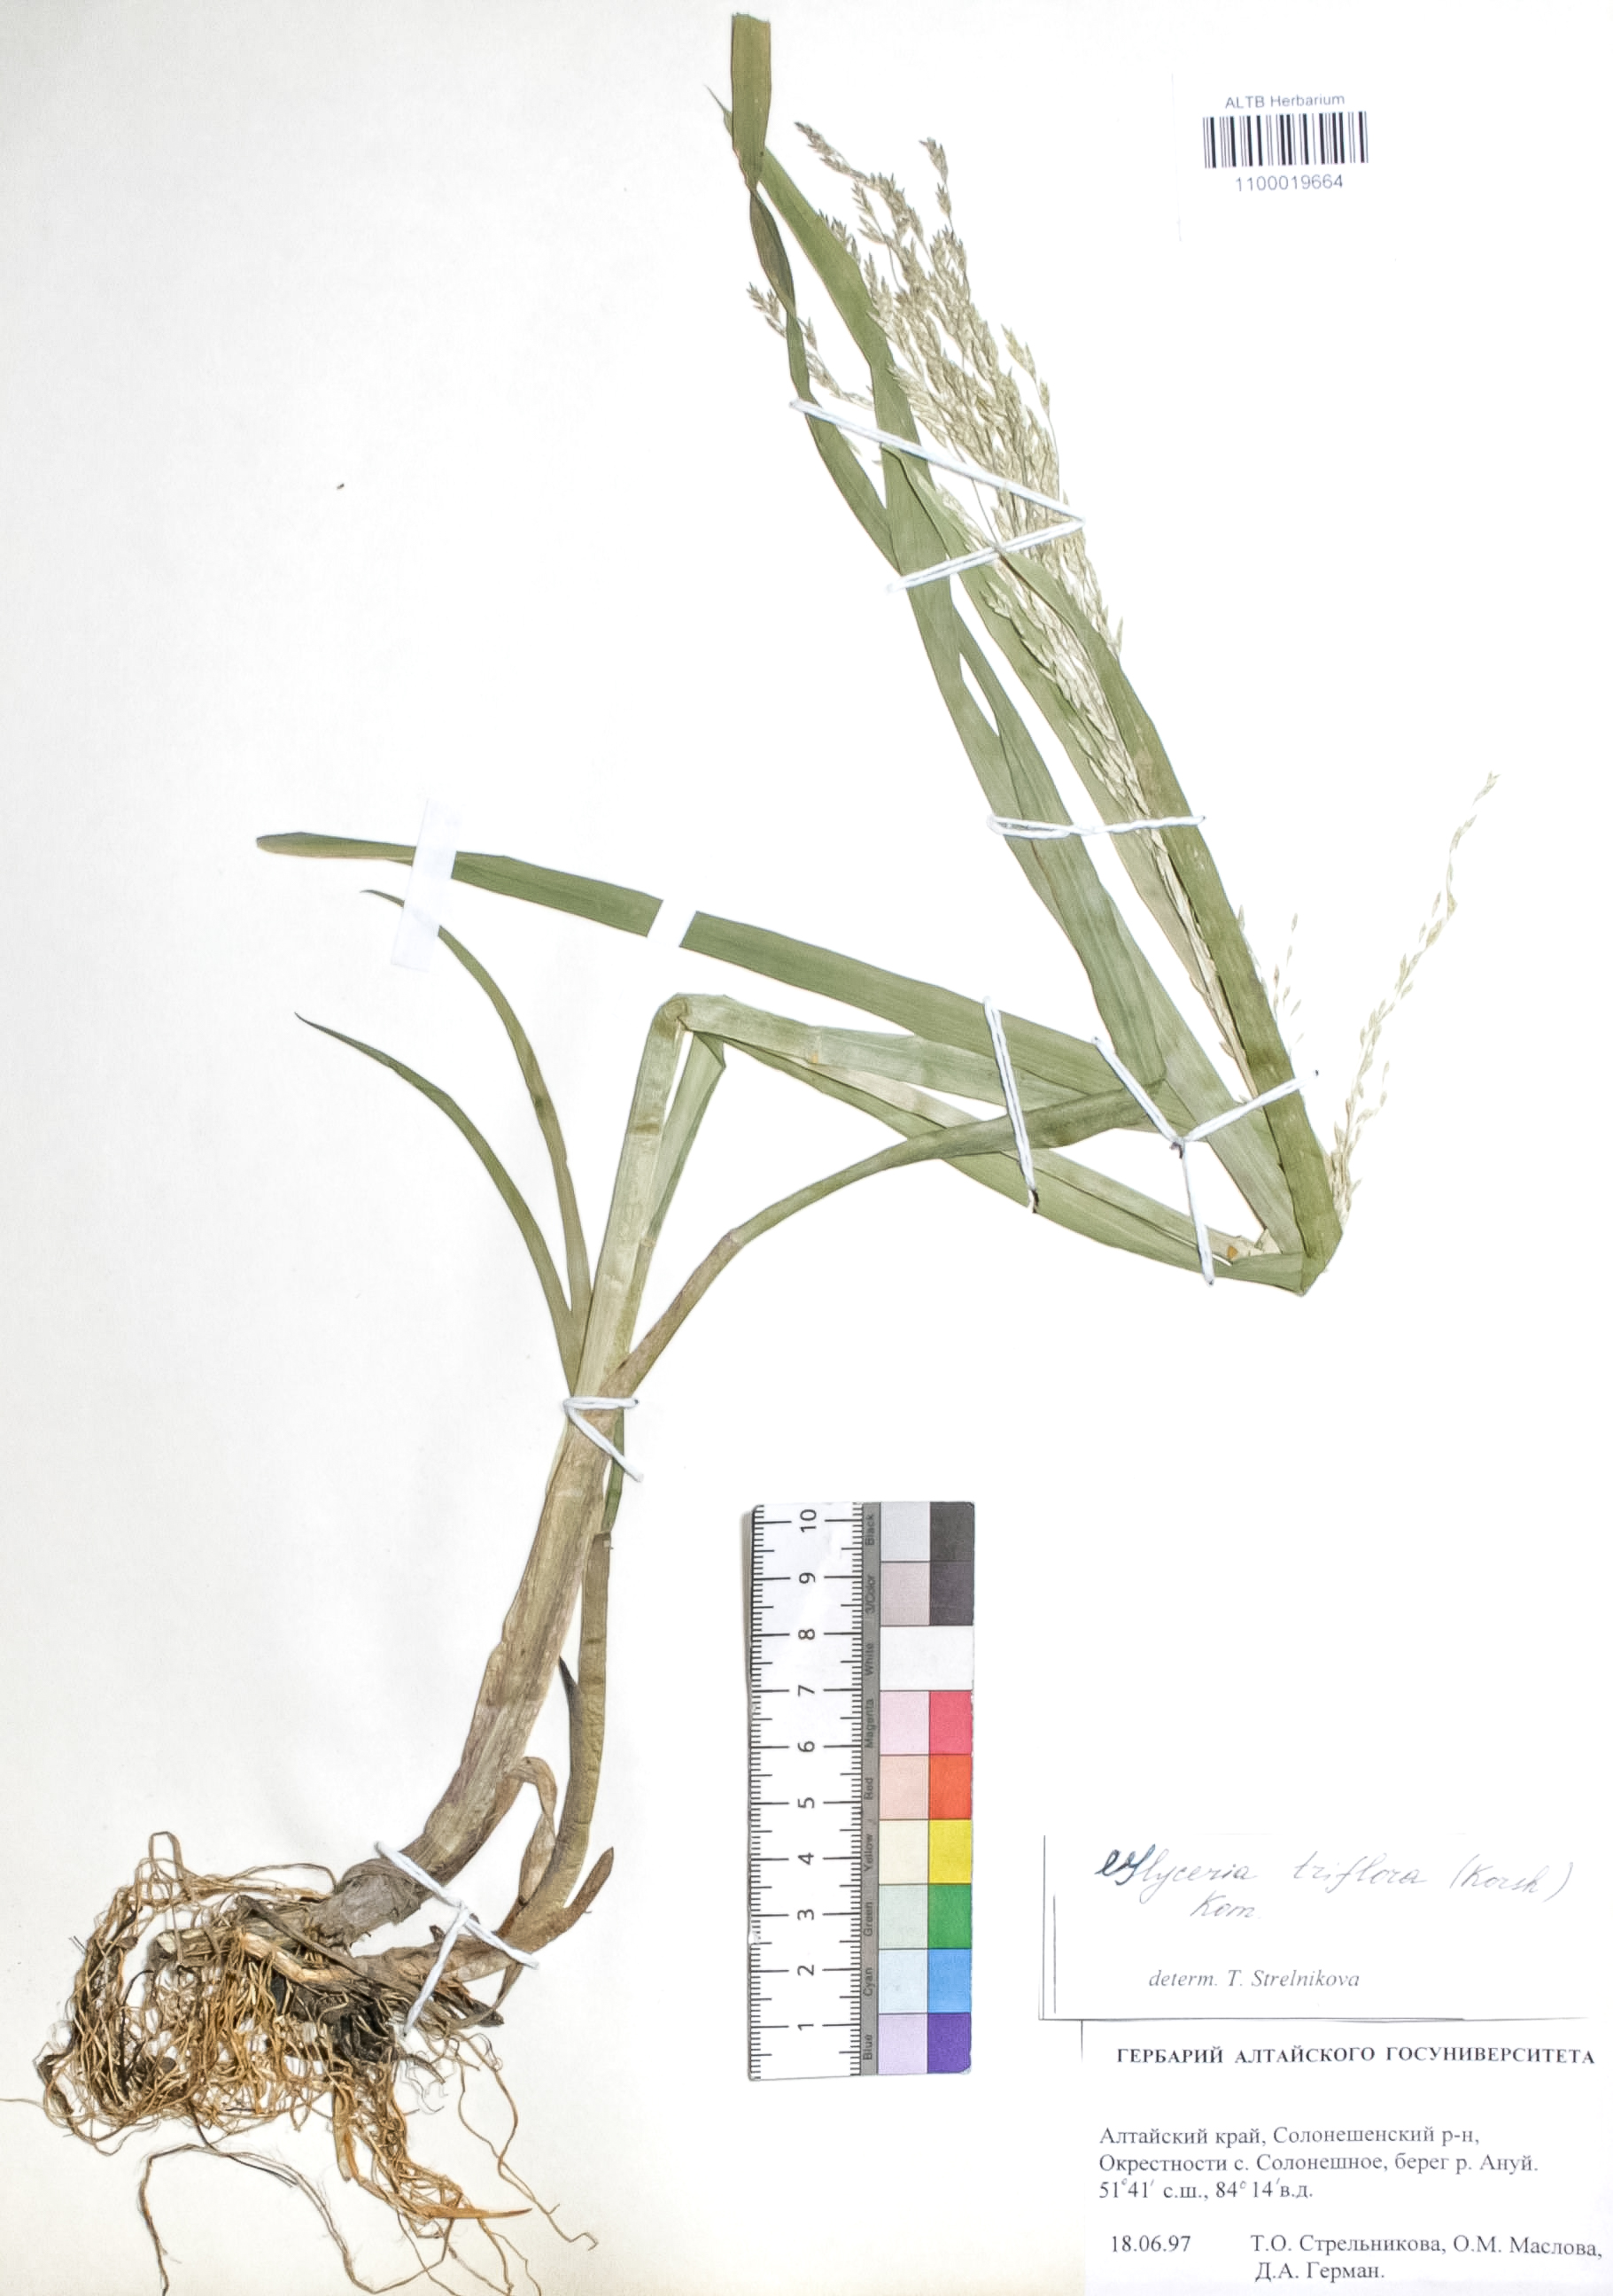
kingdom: Plantae
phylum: Tracheophyta
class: Liliopsida
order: Poales
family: Poaceae
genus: Glyceria
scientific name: Glyceria lithuanica
